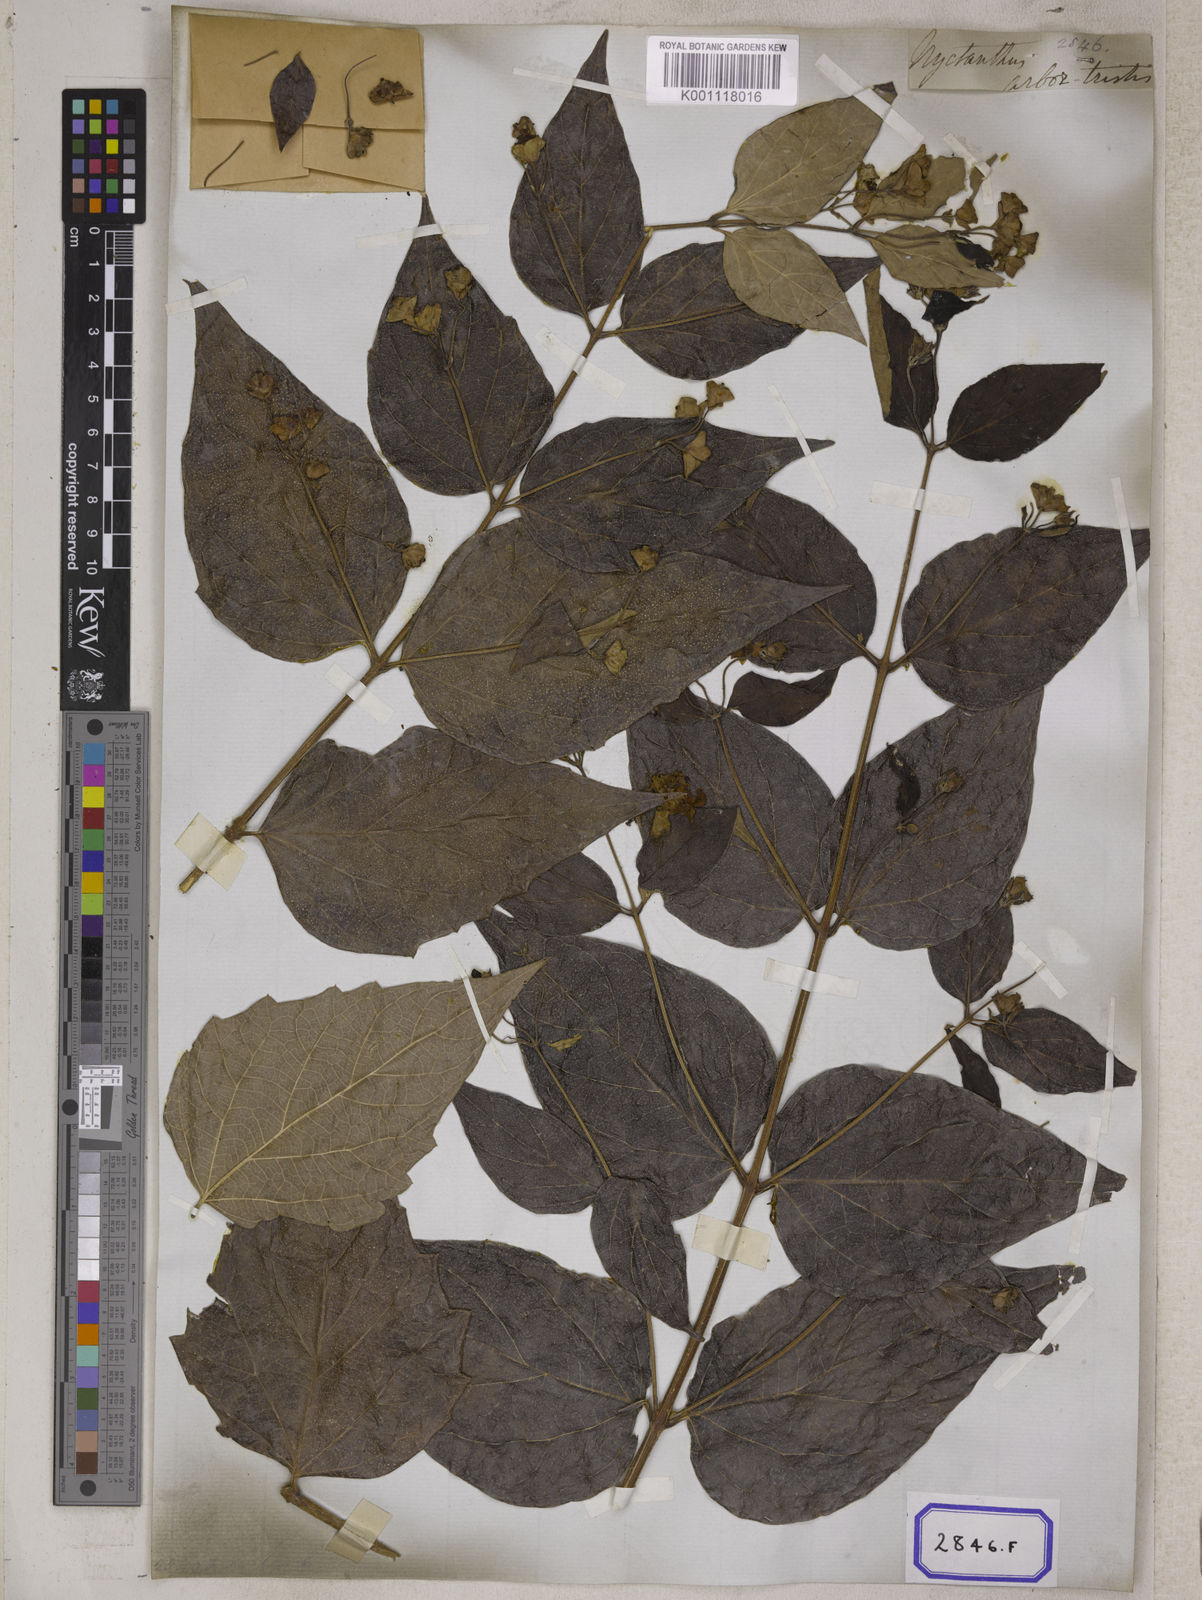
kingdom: Plantae
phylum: Tracheophyta
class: Magnoliopsida
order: Lamiales
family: Oleaceae
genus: Nyctanthes
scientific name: Nyctanthes arbor-tristis
